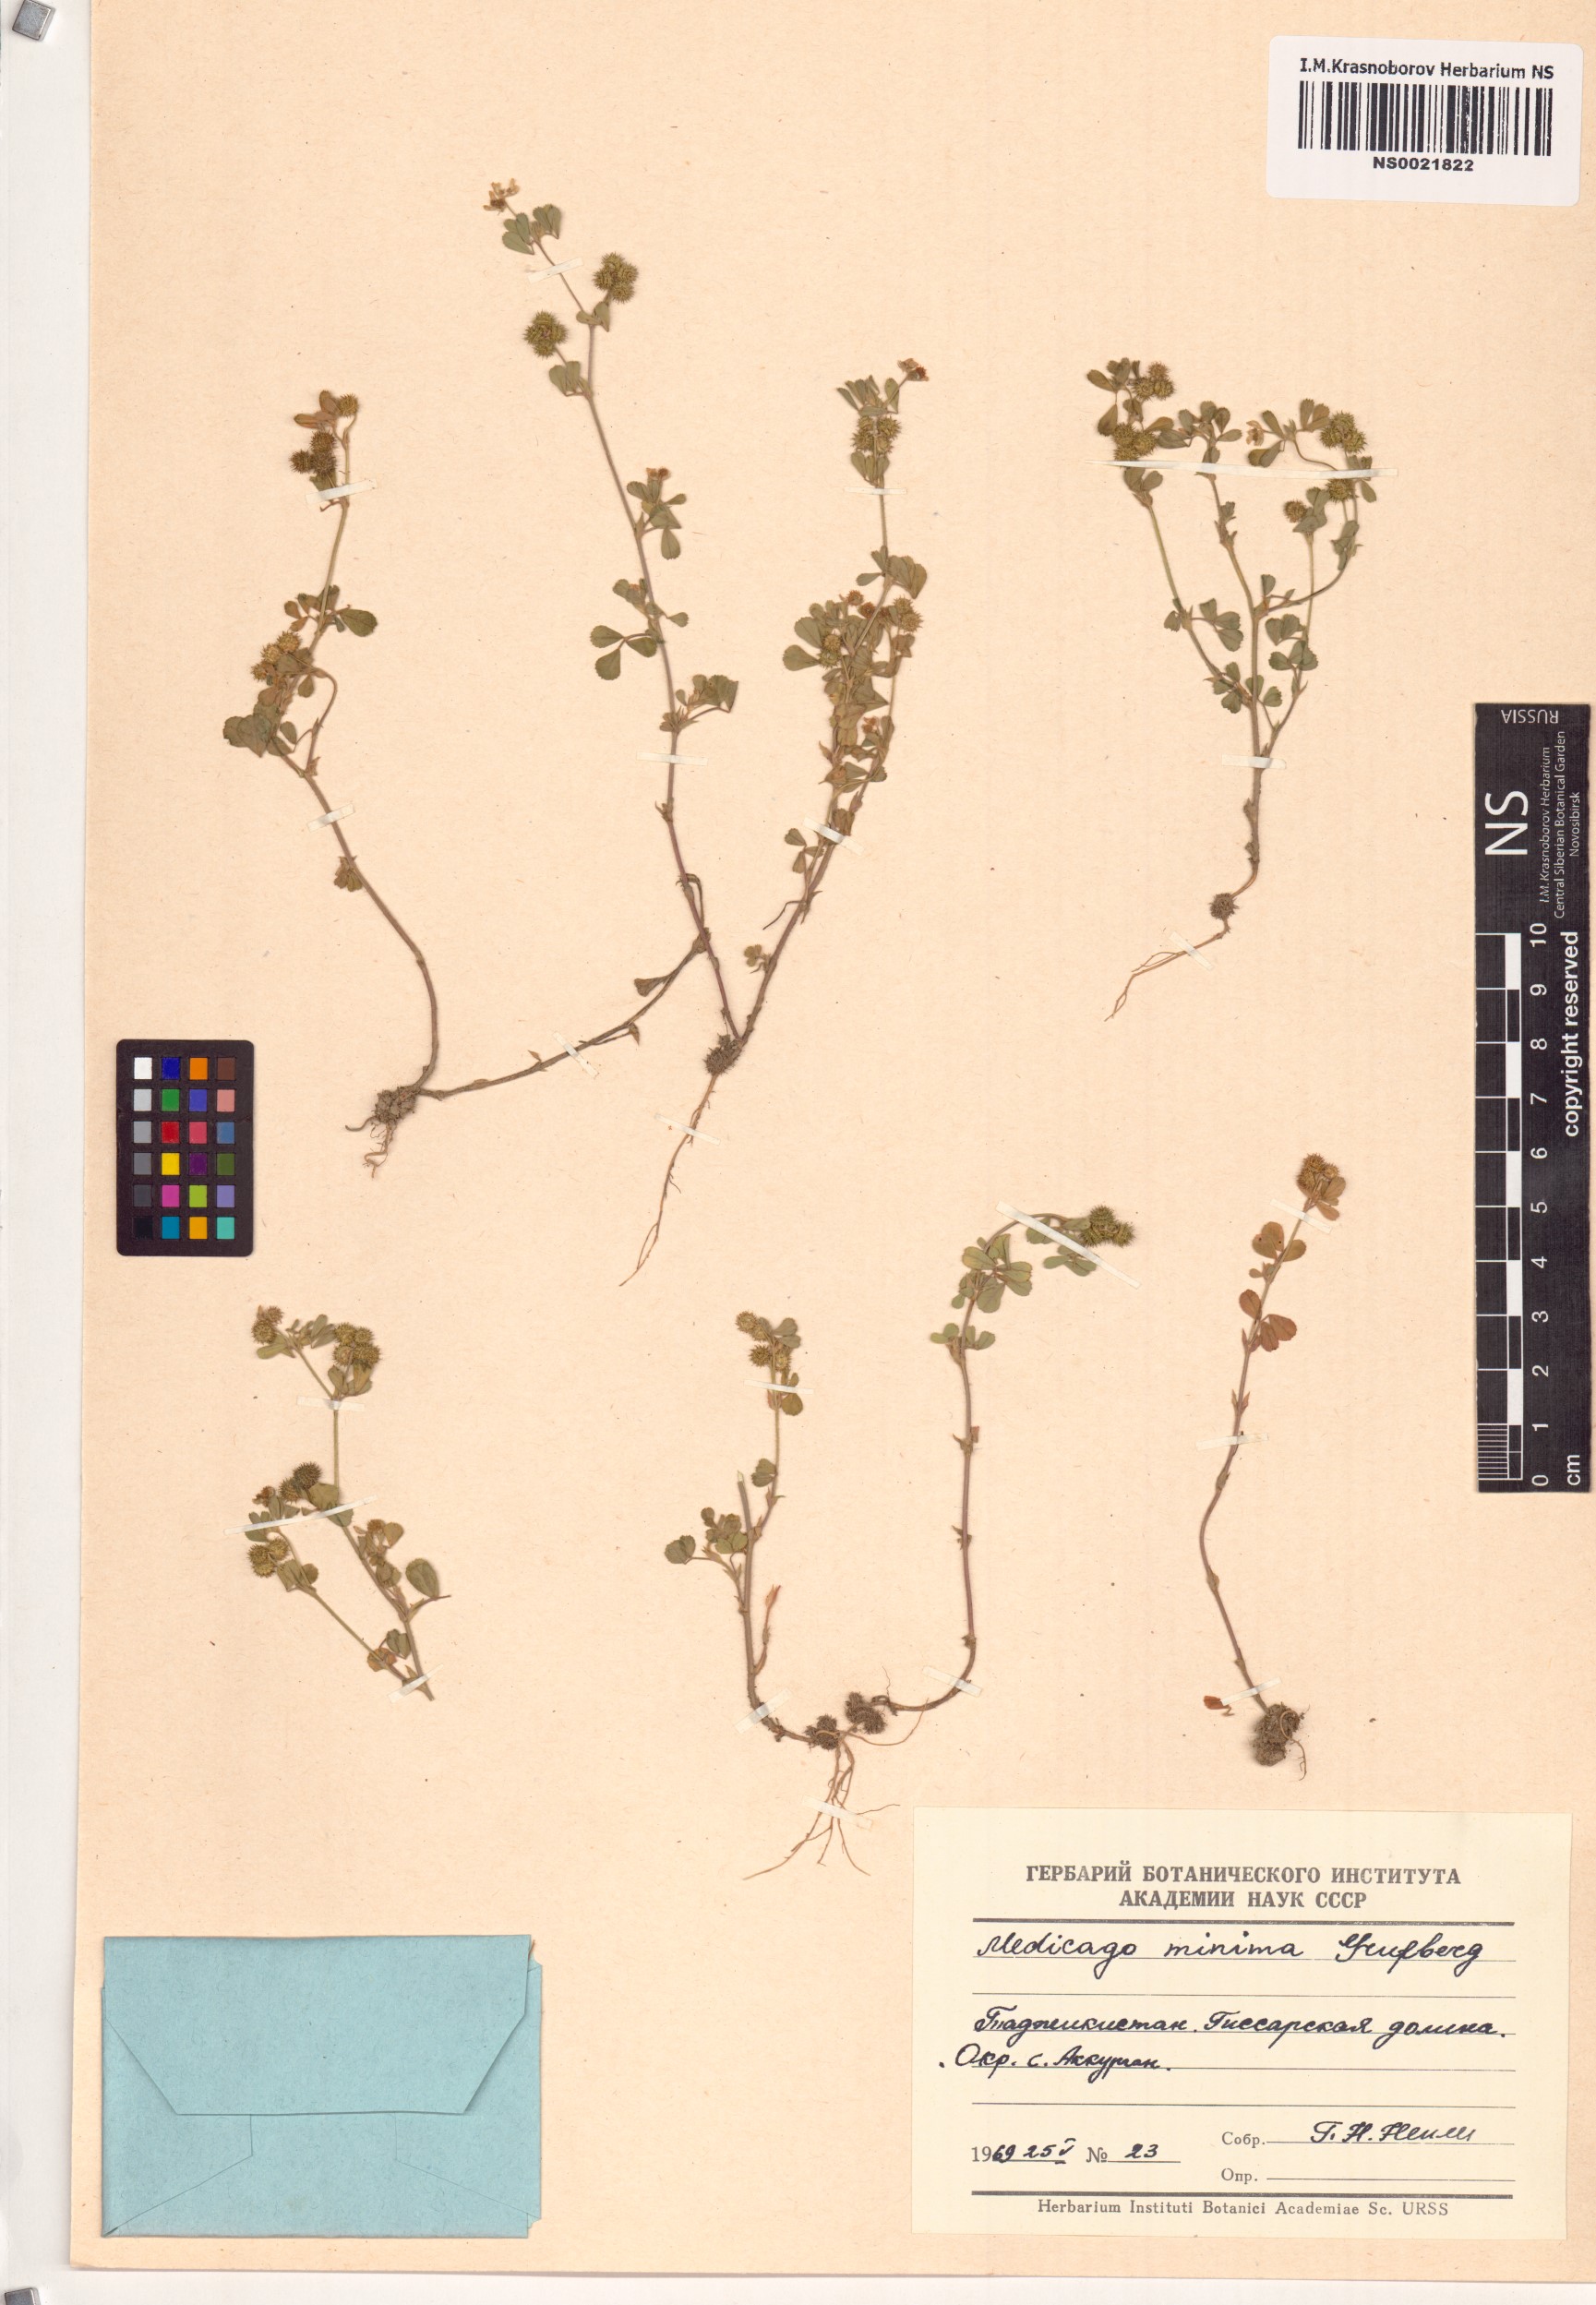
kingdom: Plantae
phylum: Tracheophyta
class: Magnoliopsida
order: Fabales
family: Fabaceae
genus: Medicago
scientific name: Medicago minima
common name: Little bur-clover
